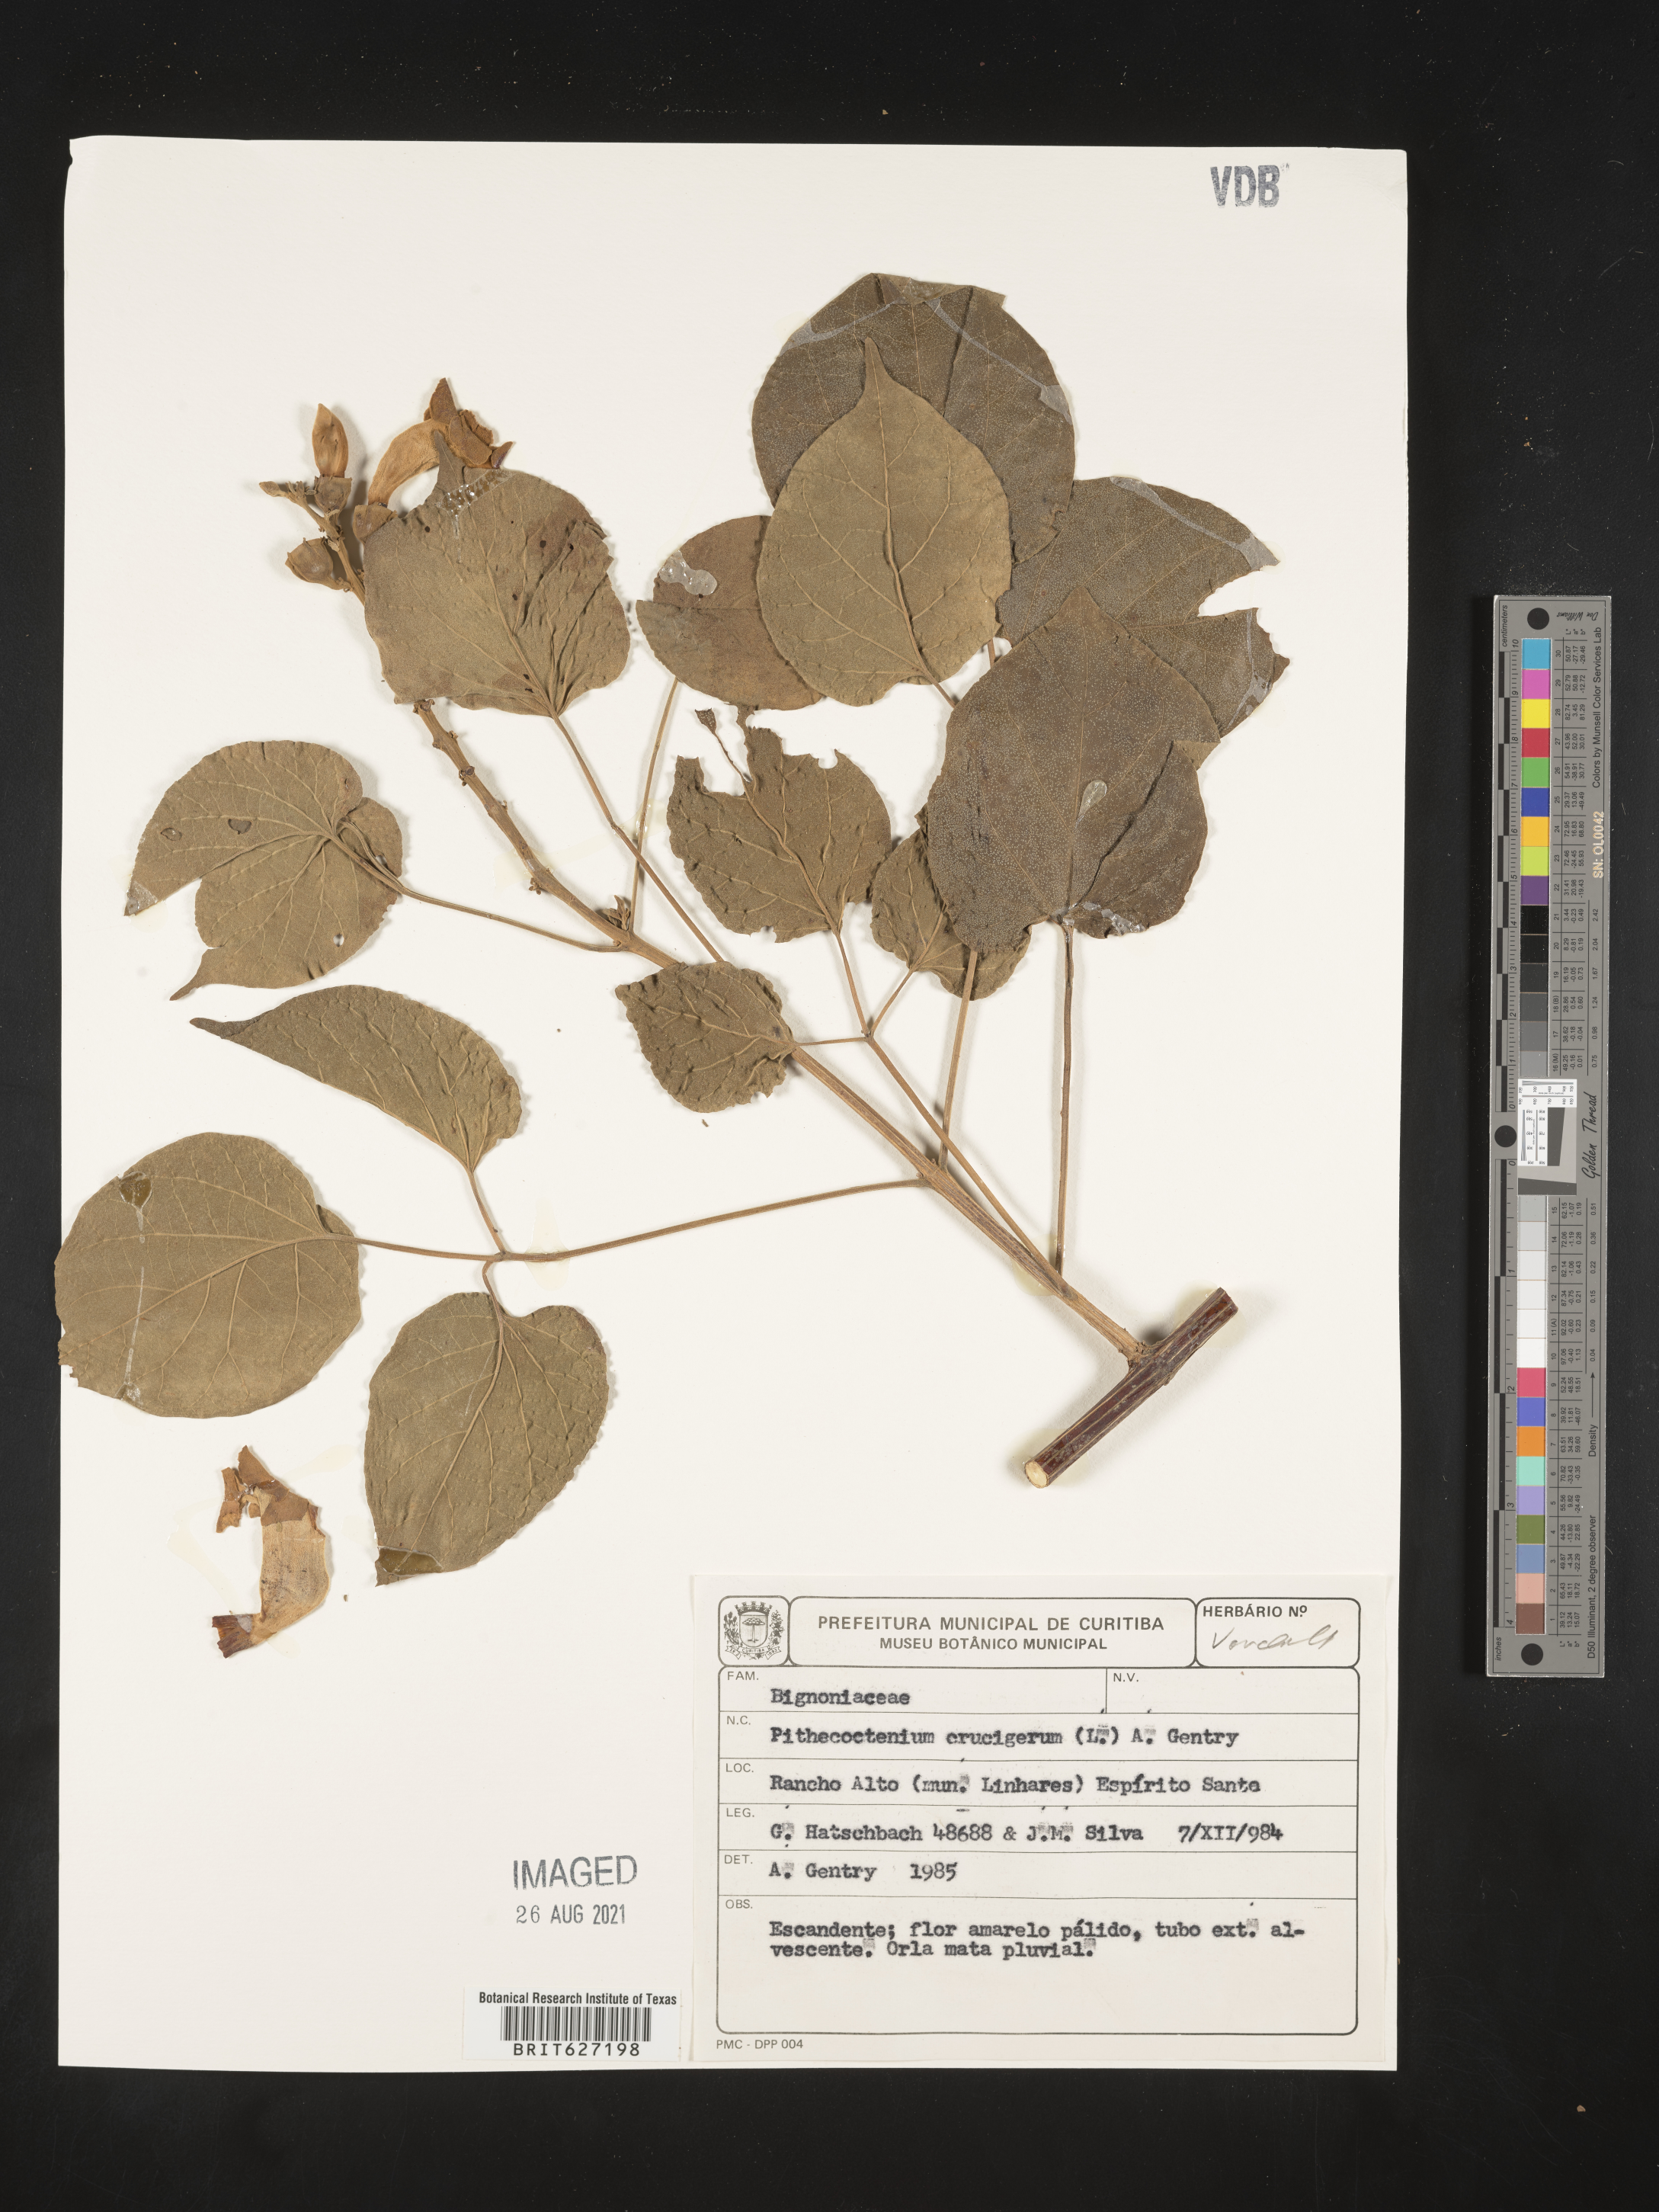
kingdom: Plantae
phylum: Tracheophyta
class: Magnoliopsida
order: Lamiales
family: Bignoniaceae
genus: Amphilophium
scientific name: Amphilophium crucigerum
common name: Monkey comb
